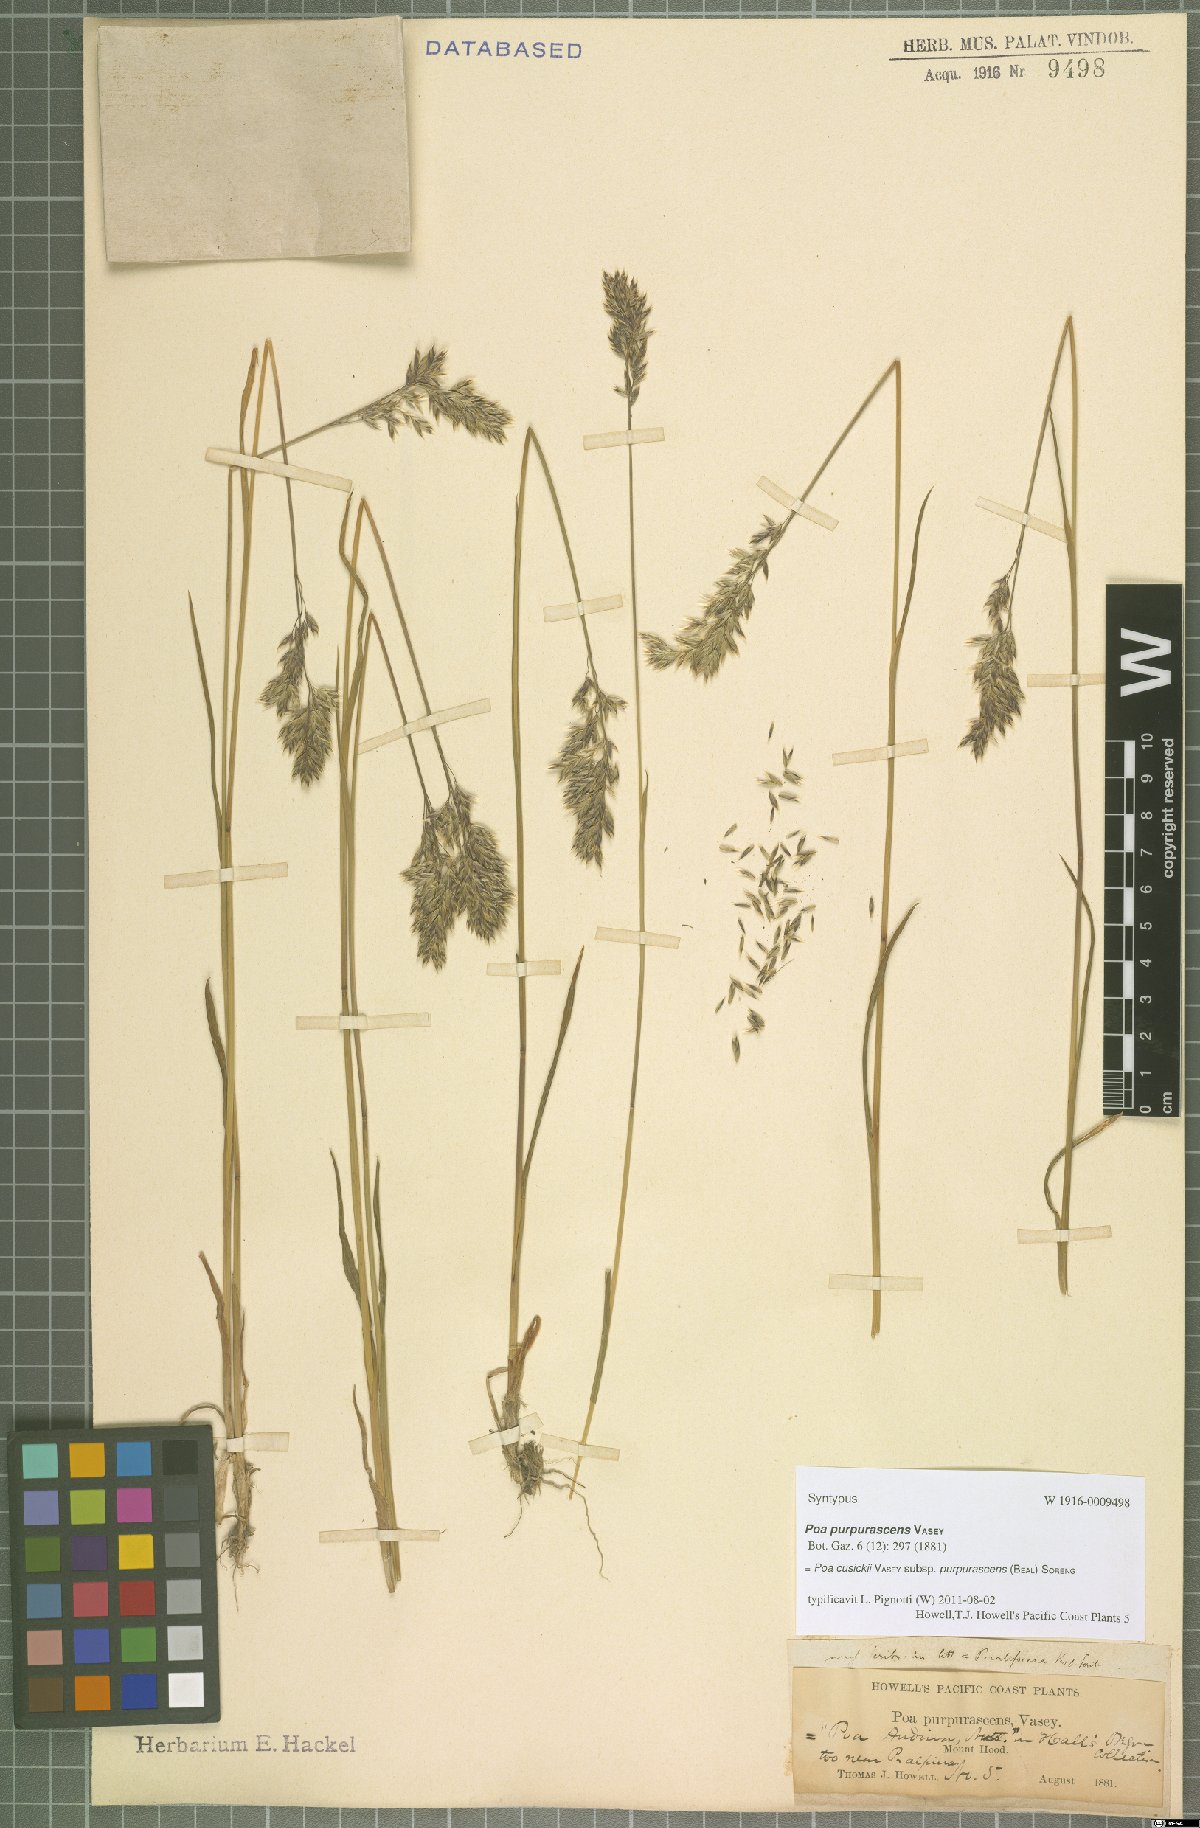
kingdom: Plantae
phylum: Tracheophyta
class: Liliopsida
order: Poales
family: Poaceae
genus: Poa
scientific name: Poa cusickii
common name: Cusick's bluegrass
